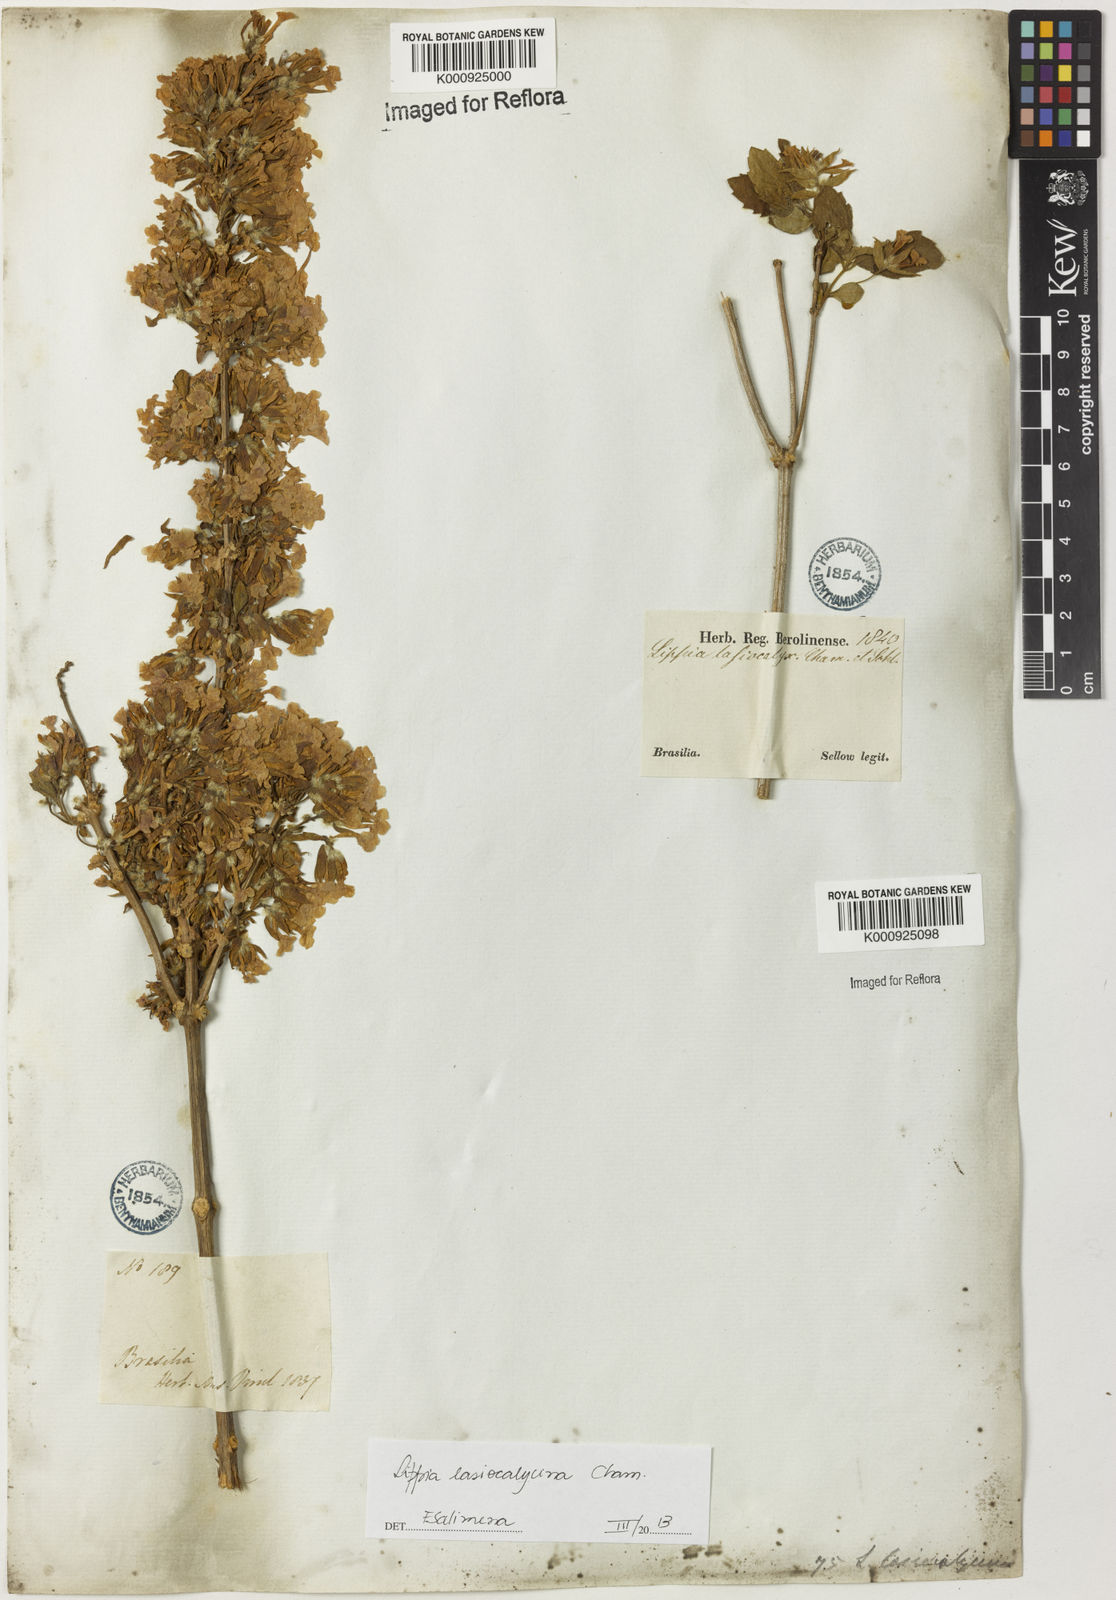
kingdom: Plantae
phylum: Tracheophyta
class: Magnoliopsida
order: Lamiales
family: Verbenaceae
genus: Lippia
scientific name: Lippia lasiocalycina
